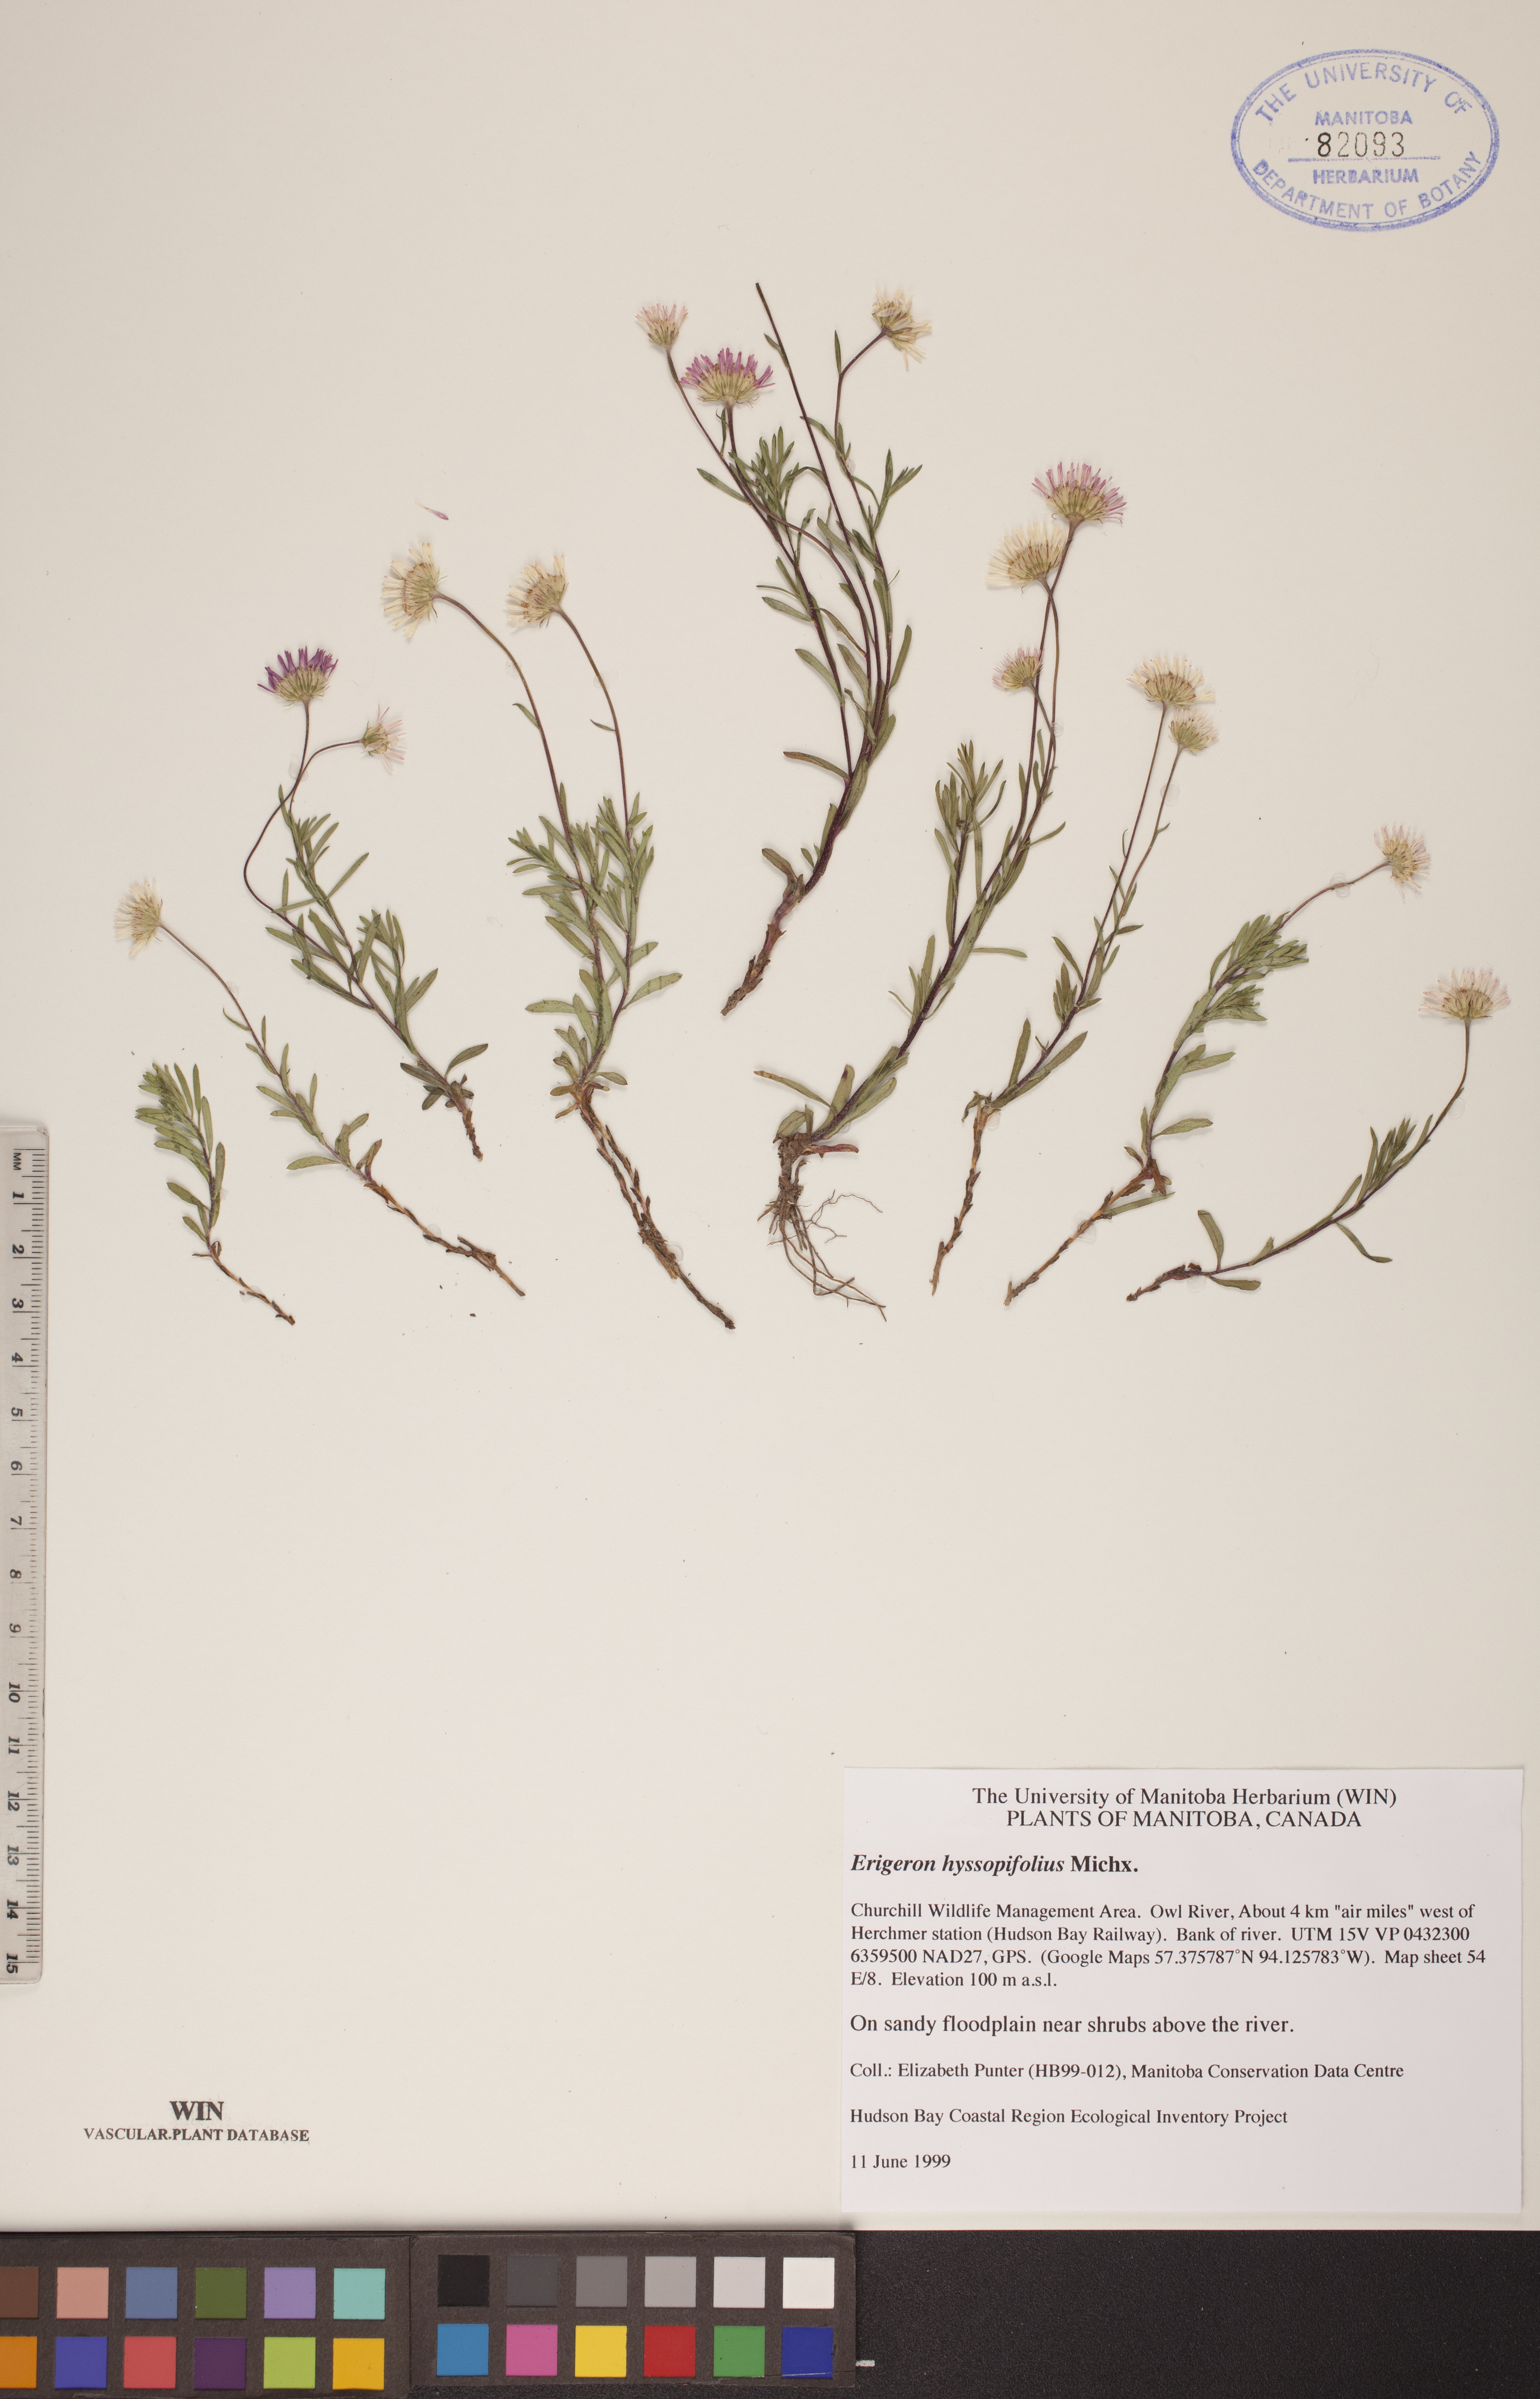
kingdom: Plantae
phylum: Tracheophyta
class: Magnoliopsida
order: Asterales
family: Asteraceae
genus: Erigeron
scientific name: Erigeron hyssopifolius
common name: Daisy fleabane
